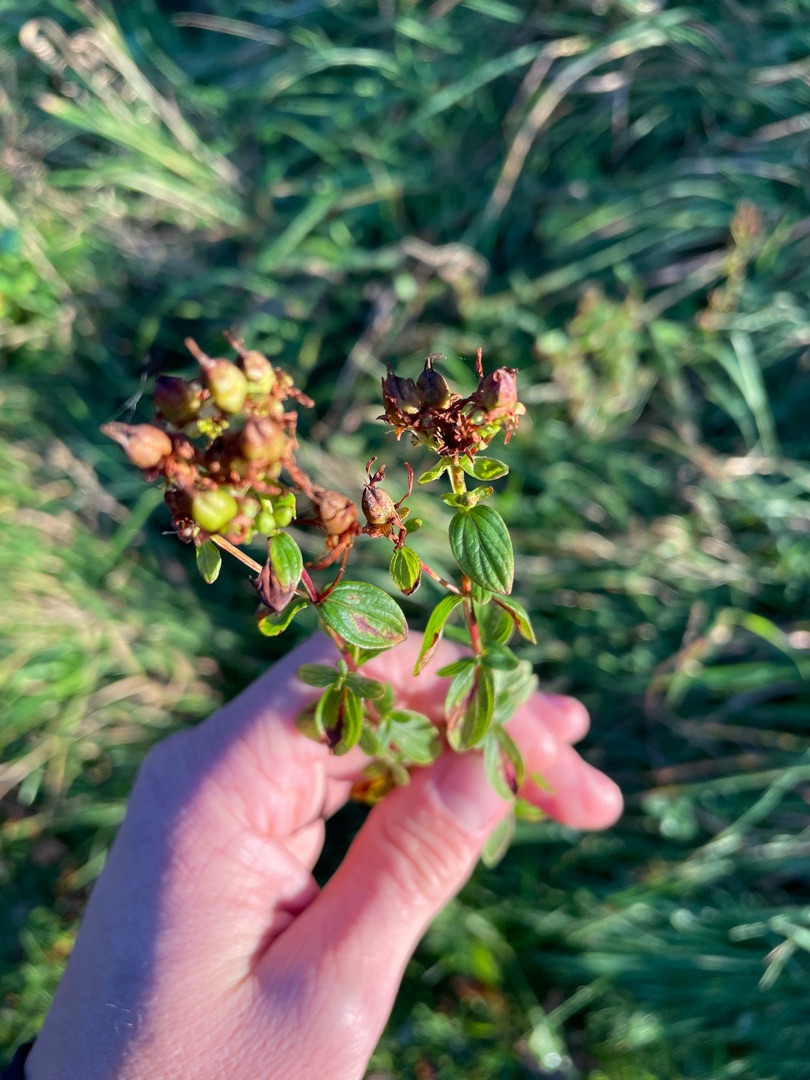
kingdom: Plantae
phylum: Tracheophyta
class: Magnoliopsida
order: Malpighiales
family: Hypericaceae
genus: Hypericum
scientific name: Hypericum perforatum
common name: Prikbladet perikon
